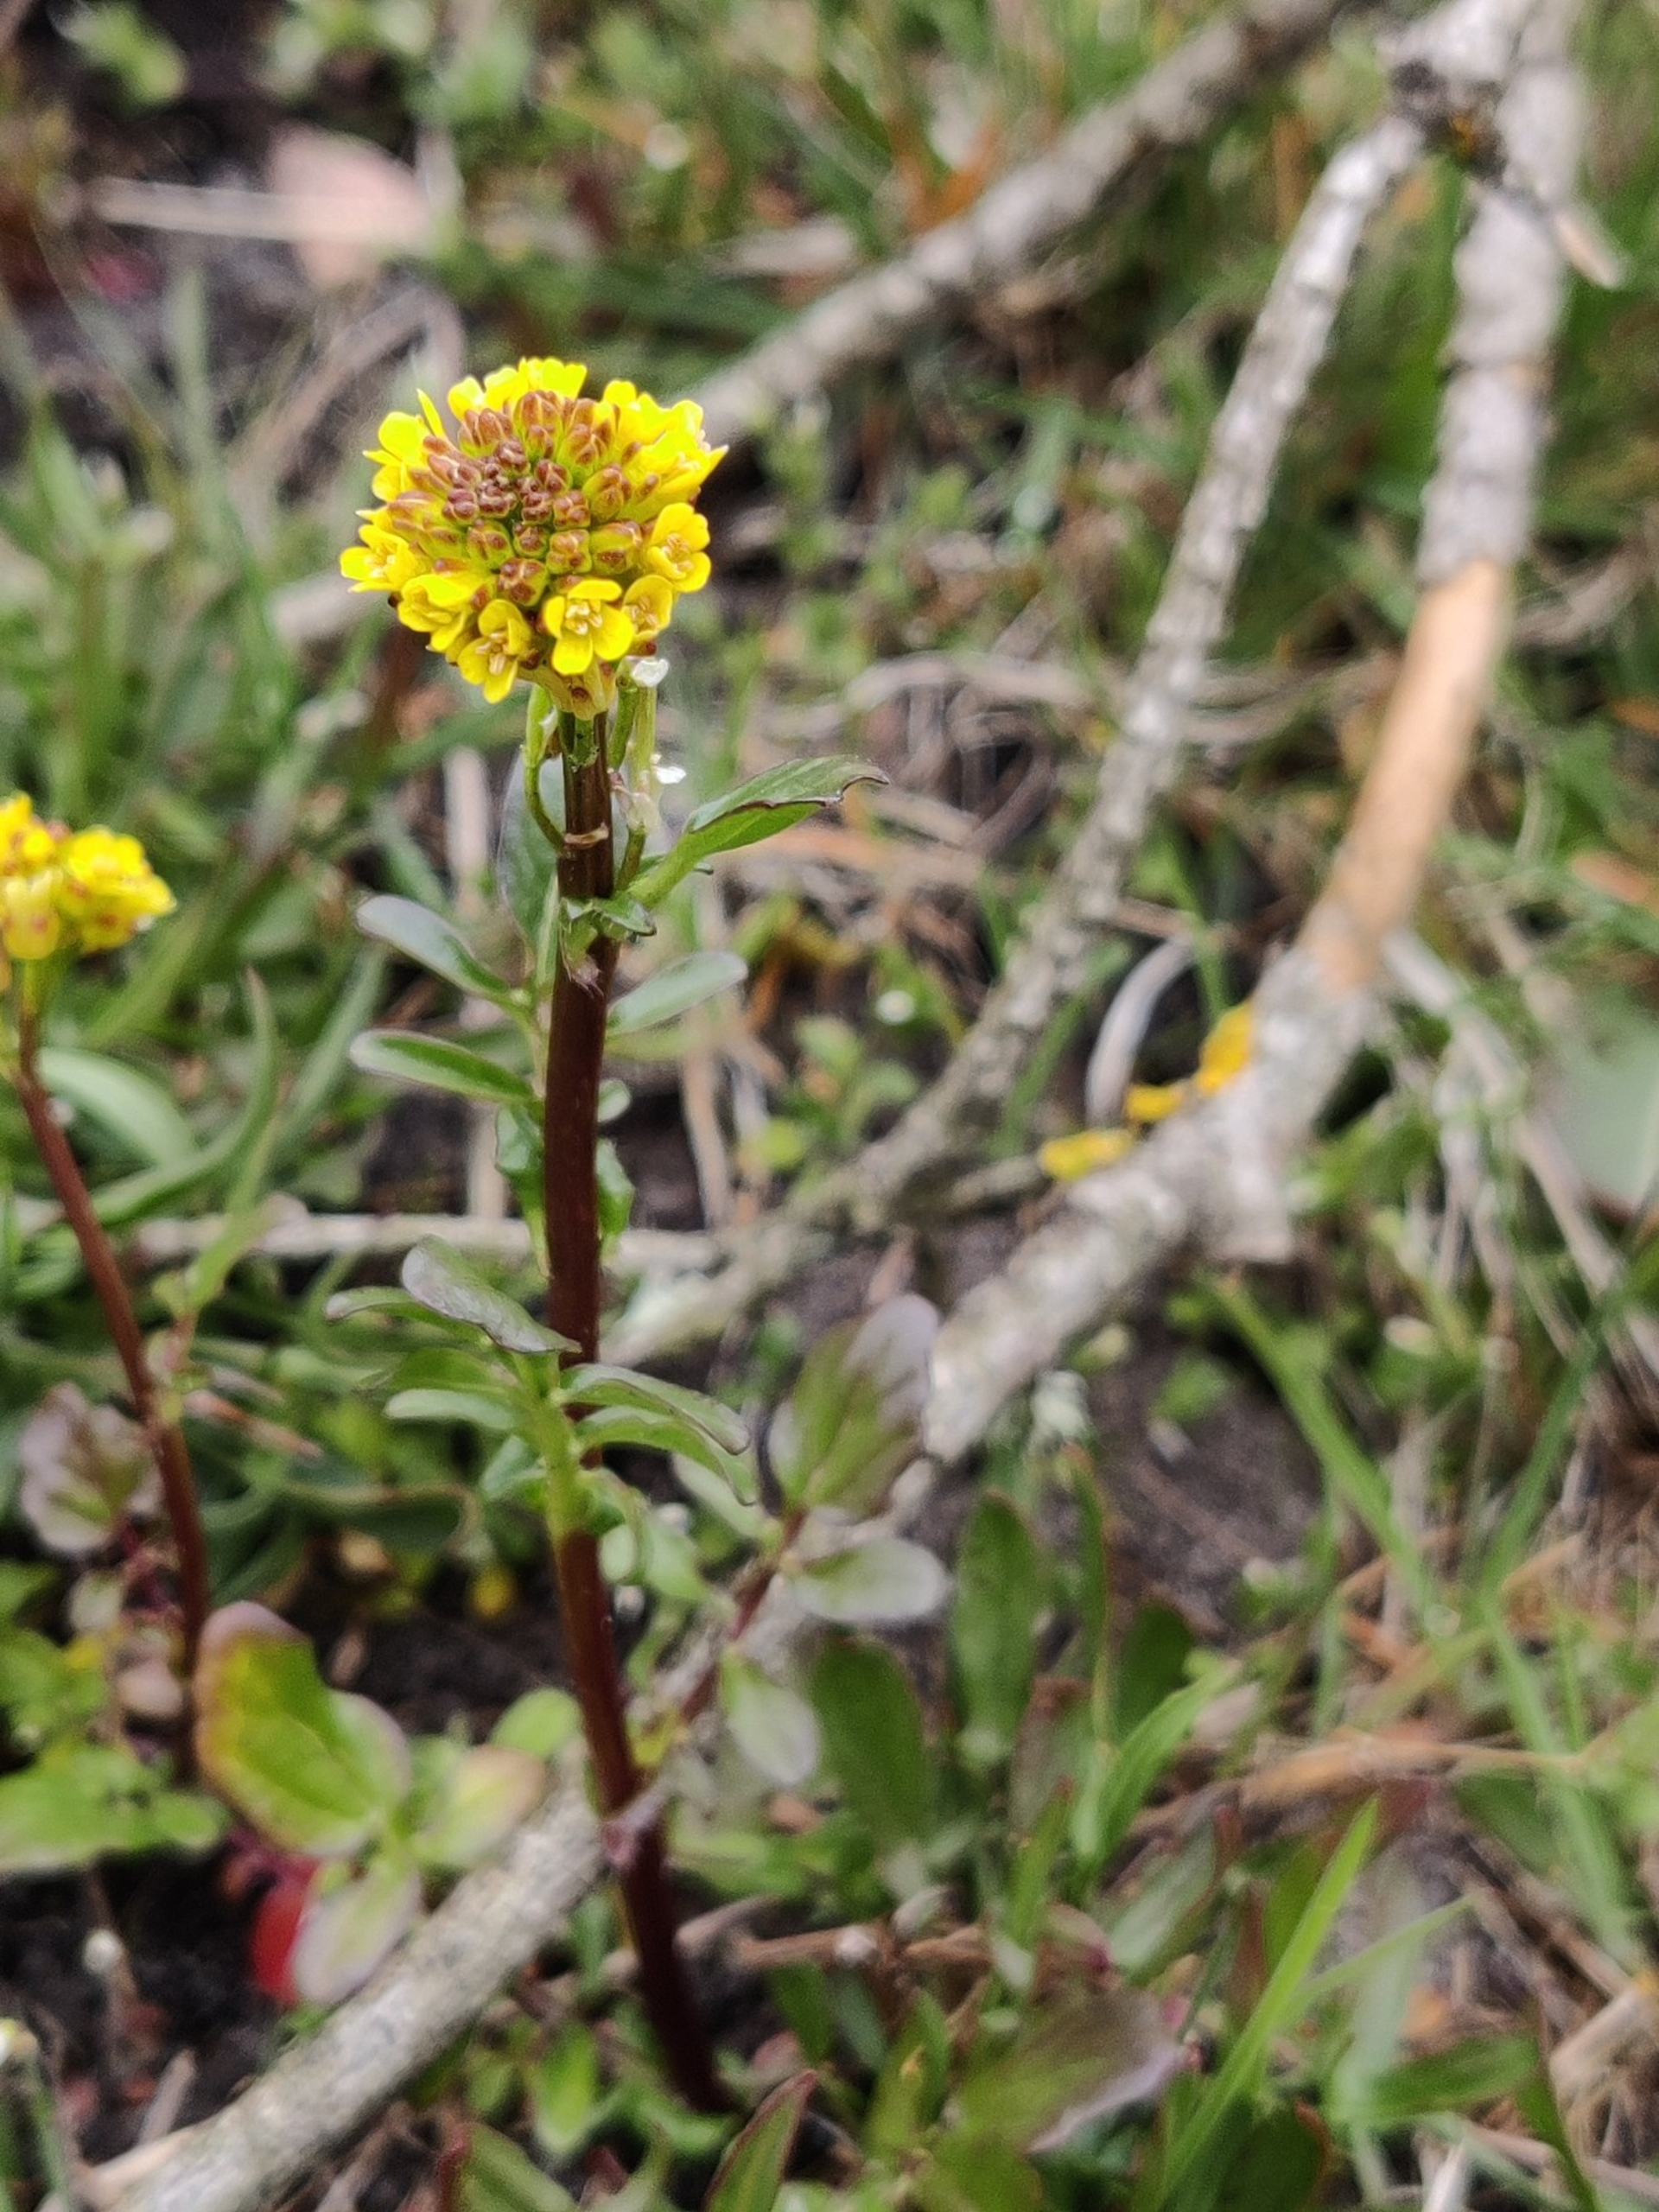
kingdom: Plantae
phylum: Tracheophyta
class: Magnoliopsida
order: Brassicales
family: Brassicaceae
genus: Barbarea
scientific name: Barbarea
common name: Vinterkarseslægten
